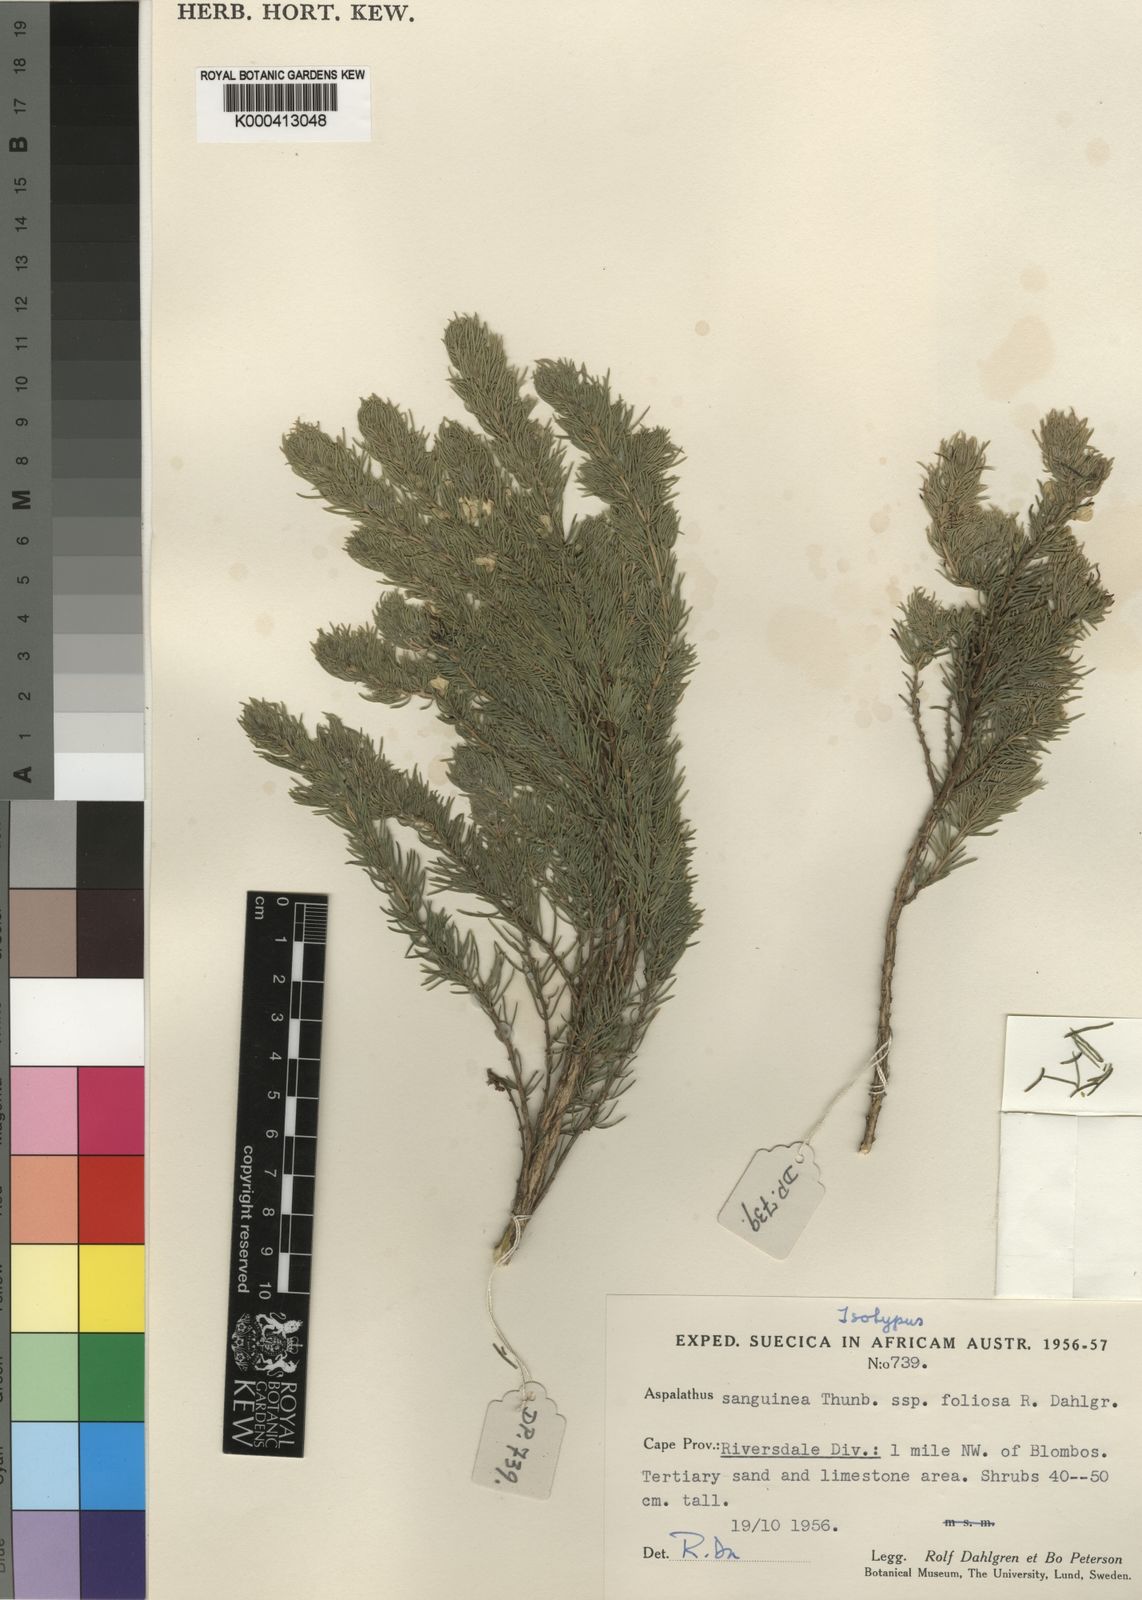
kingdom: Plantae
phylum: Tracheophyta
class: Magnoliopsida
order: Fabales
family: Fabaceae
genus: Aspalathus
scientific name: Aspalathus sanguinea
